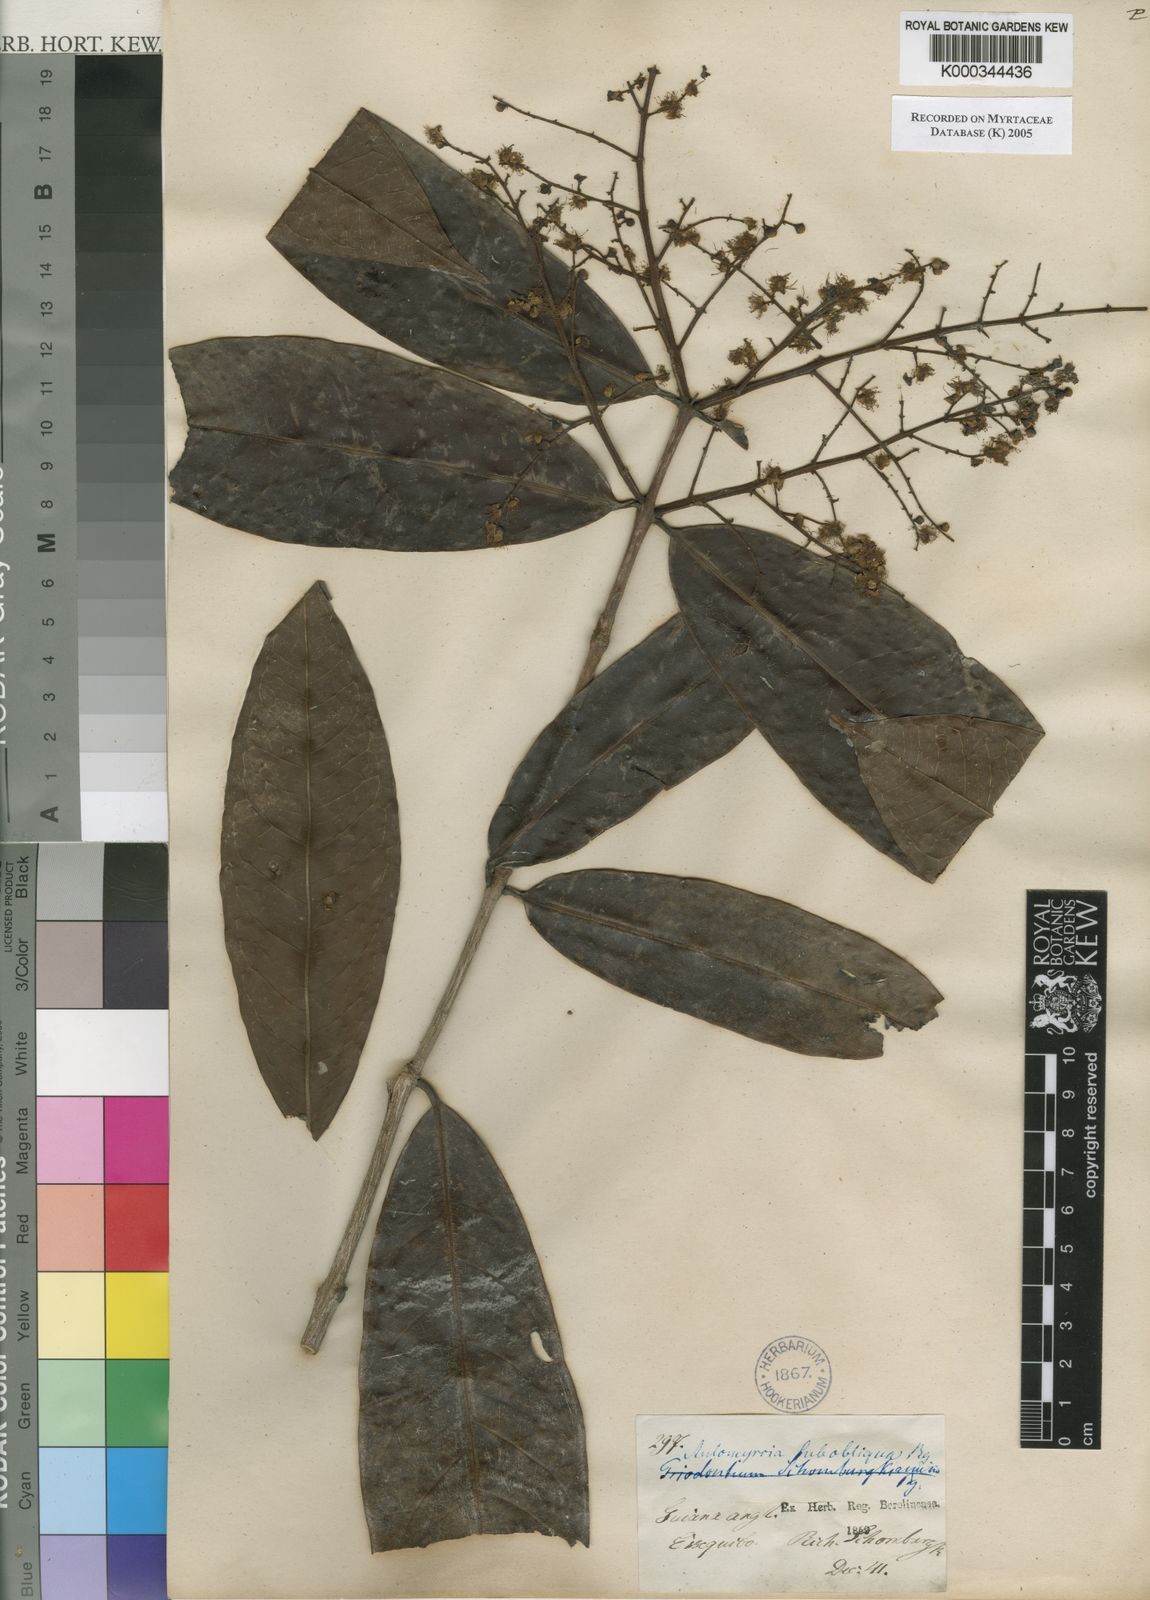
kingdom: Plantae
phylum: Tracheophyta
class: Magnoliopsida
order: Myrtales
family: Myrtaceae
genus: Myrcia
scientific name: Myrcia subobliqua
